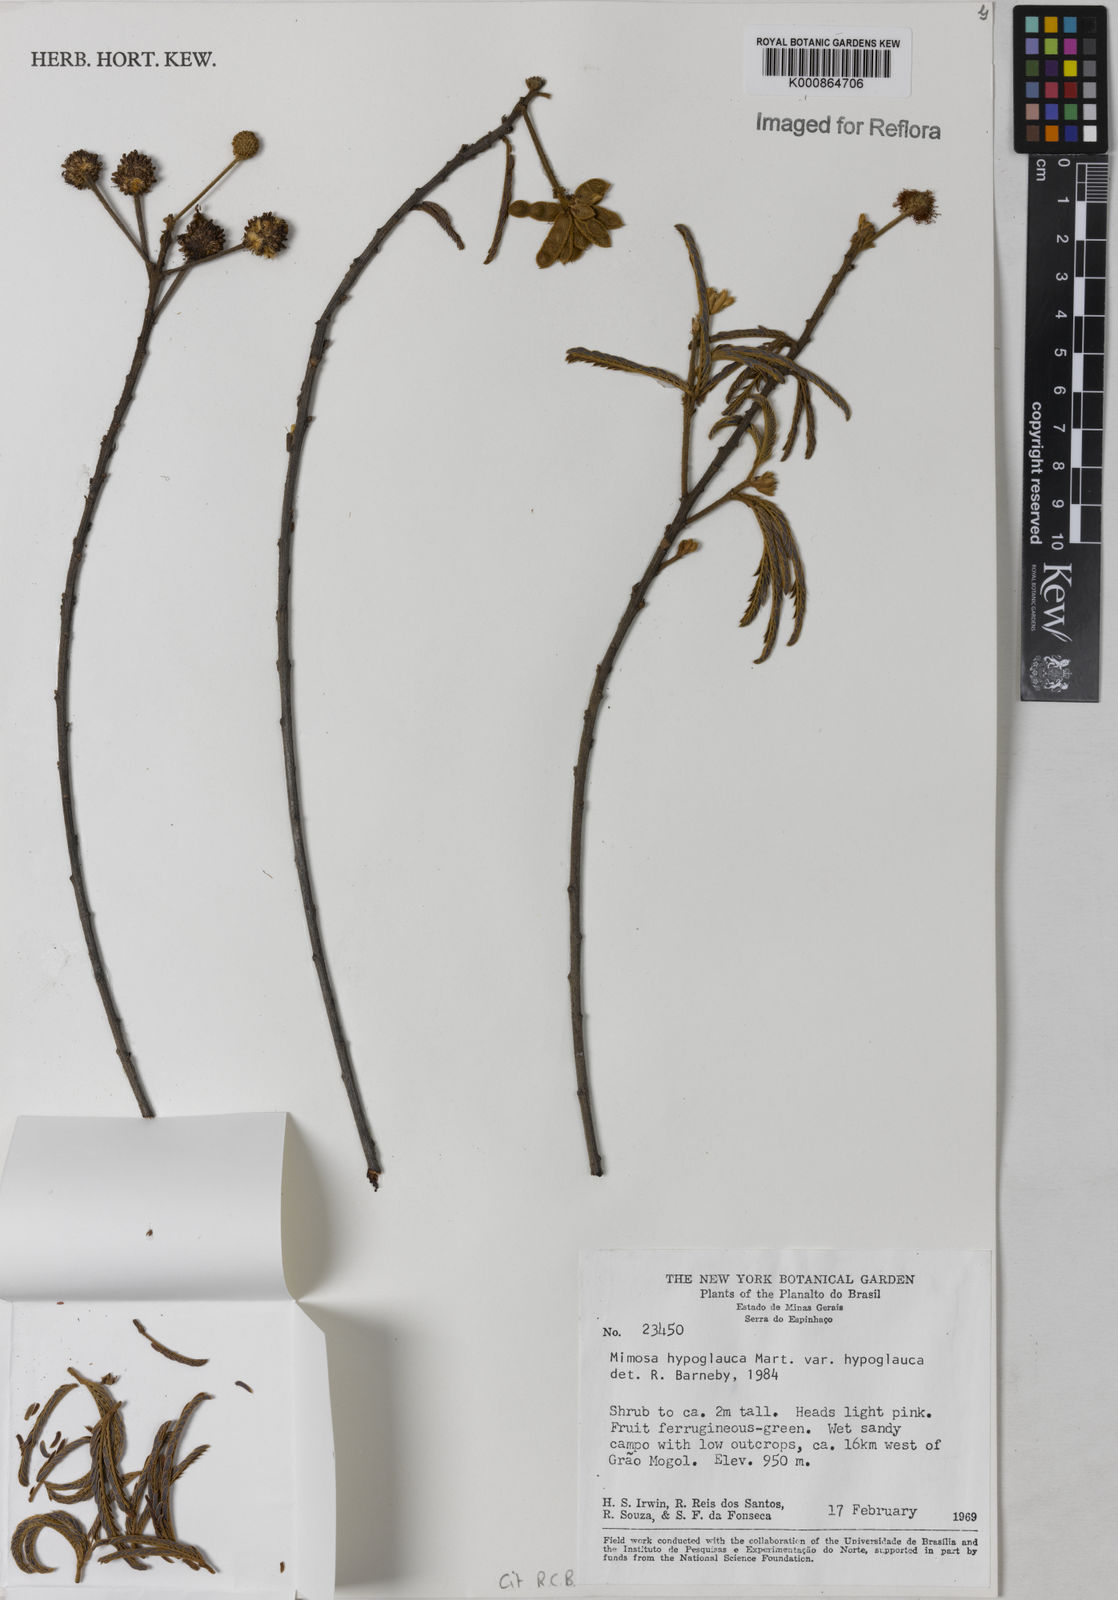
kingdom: Plantae
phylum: Tracheophyta
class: Magnoliopsida
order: Fabales
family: Fabaceae
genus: Mimosa
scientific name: Mimosa hypoglauca
